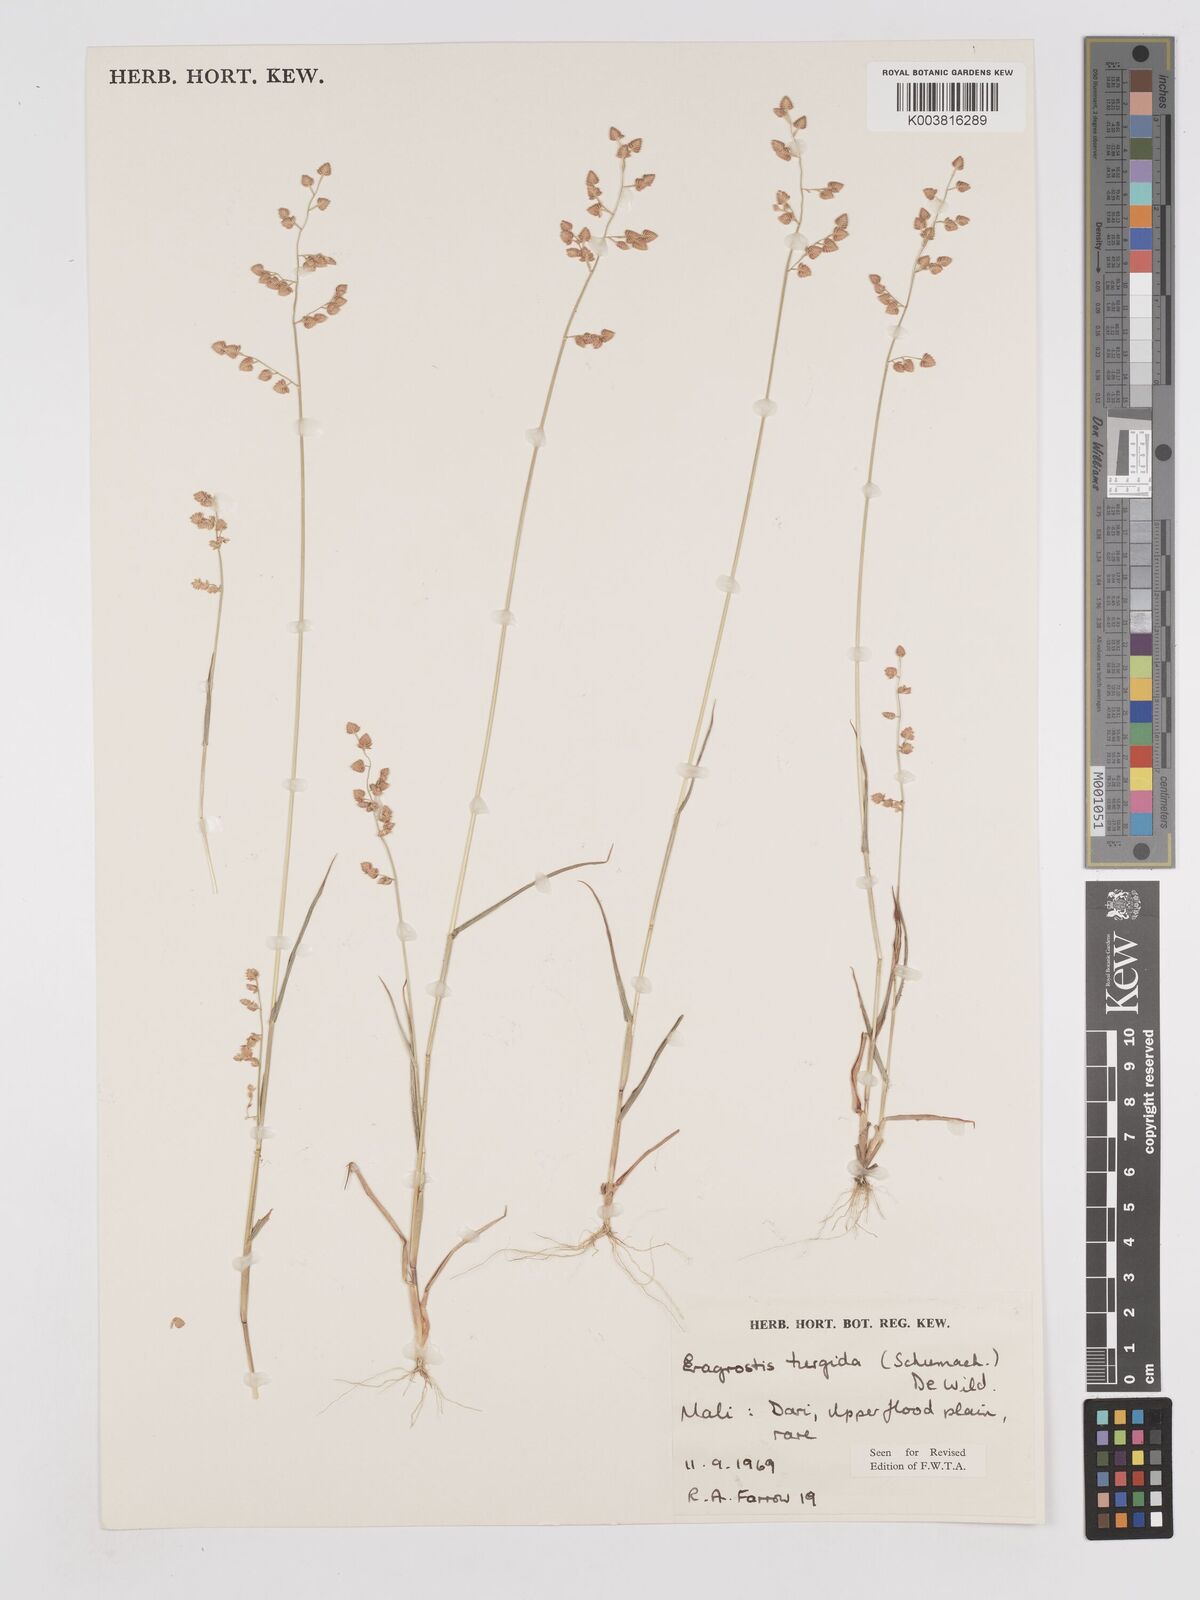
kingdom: Plantae
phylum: Tracheophyta
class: Liliopsida
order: Poales
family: Poaceae
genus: Eragrostis
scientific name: Eragrostis turgida
